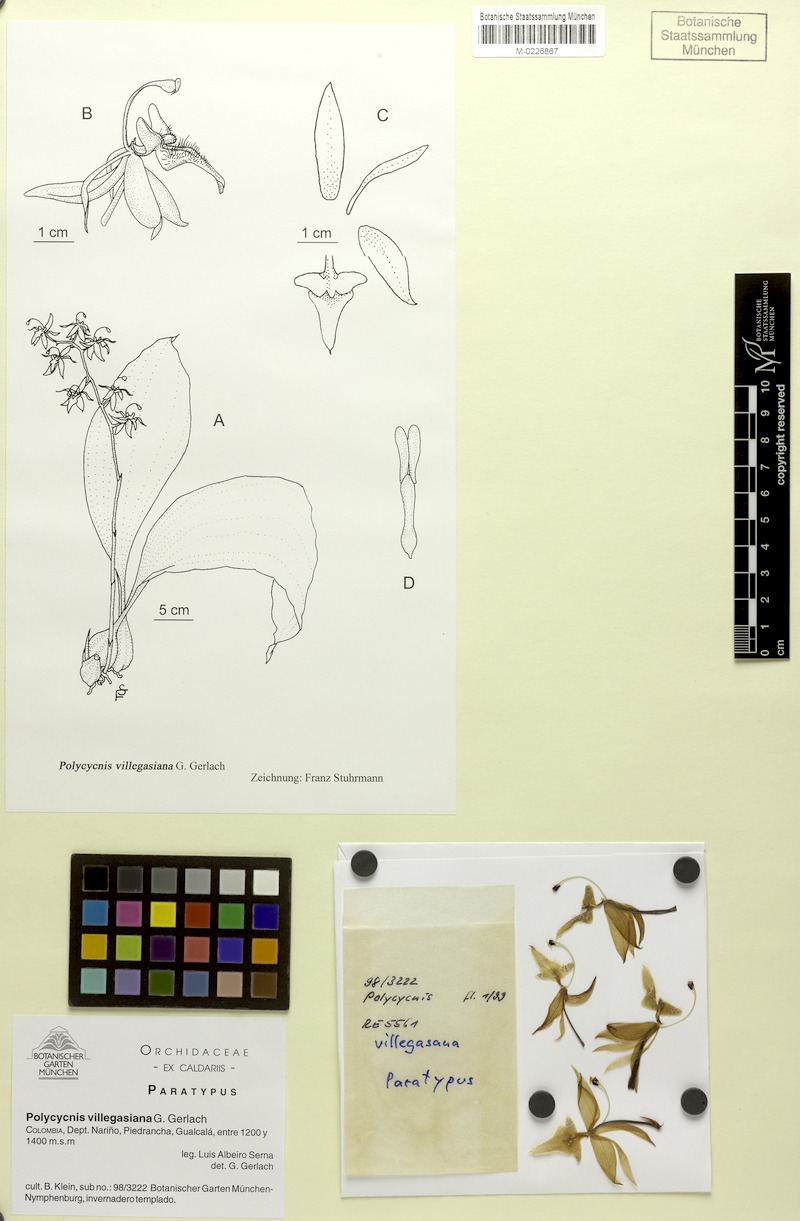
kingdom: Plantae
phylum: Tracheophyta
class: Liliopsida
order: Asparagales
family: Orchidaceae
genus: Polycycnis
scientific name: Polycycnis villegasiana
